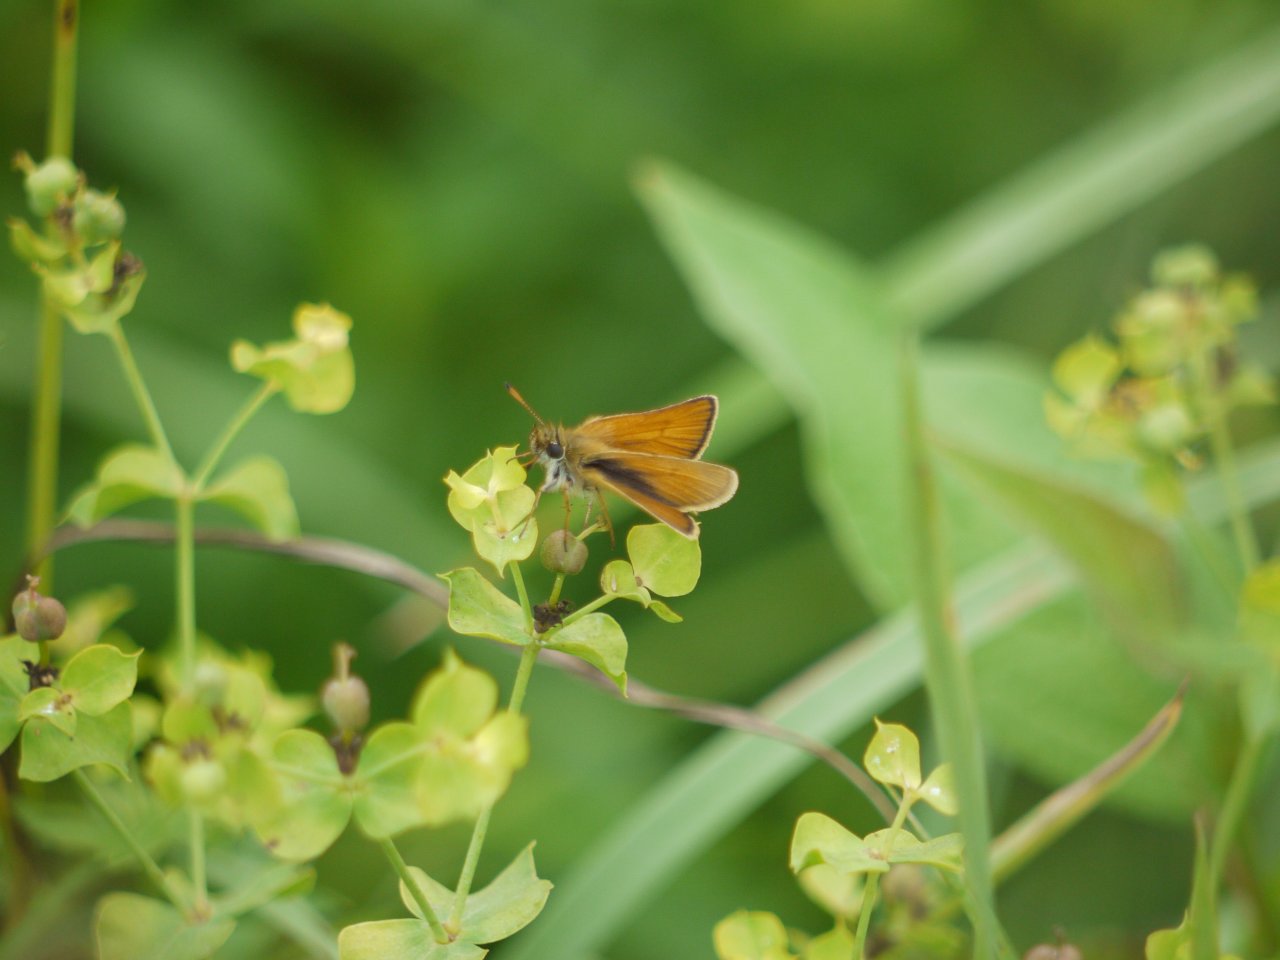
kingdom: Animalia
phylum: Arthropoda
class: Insecta
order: Lepidoptera
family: Hesperiidae
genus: Thymelicus
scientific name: Thymelicus lineola
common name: European Skipper
